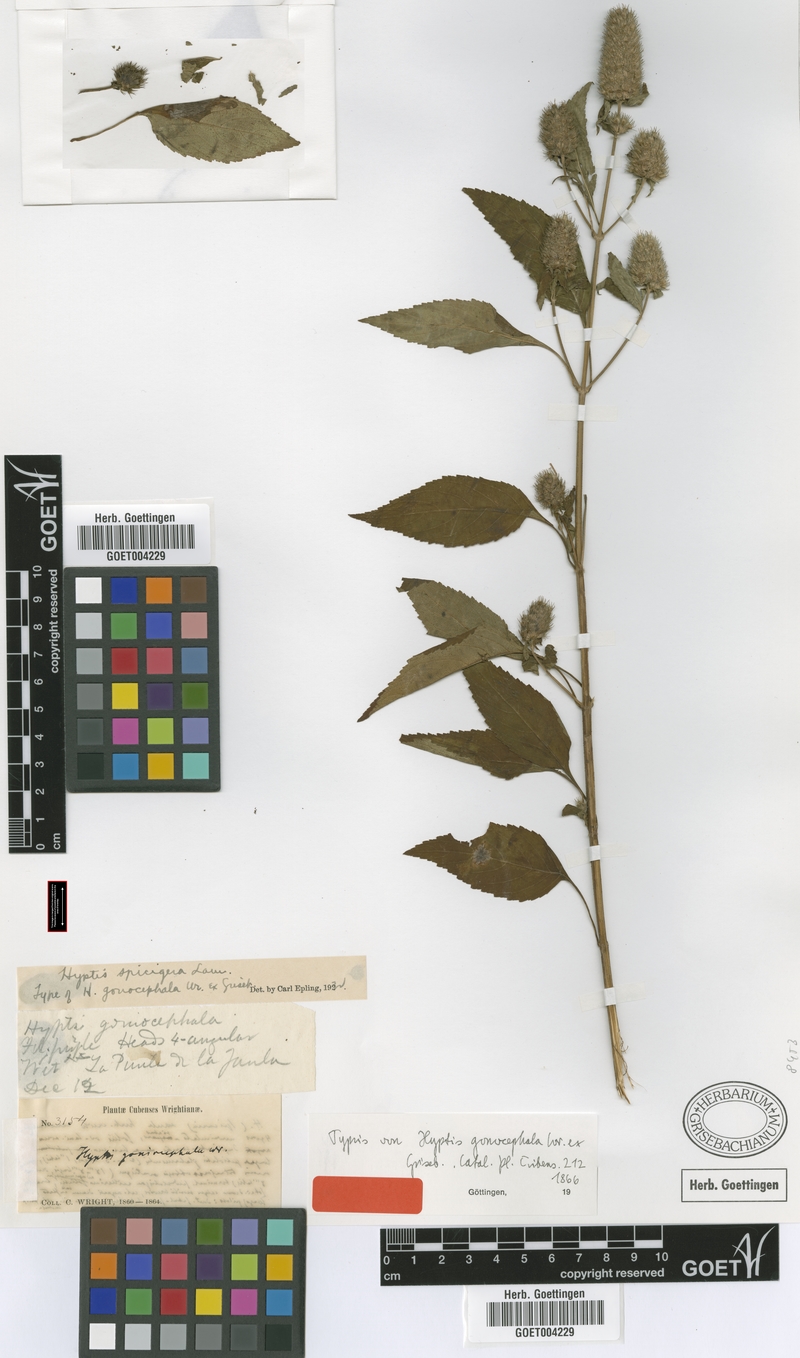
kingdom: Plantae
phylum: Tracheophyta
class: Magnoliopsida
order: Lamiales
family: Lamiaceae
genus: Cantinoa
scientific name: Cantinoa americana
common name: Black-sesame
